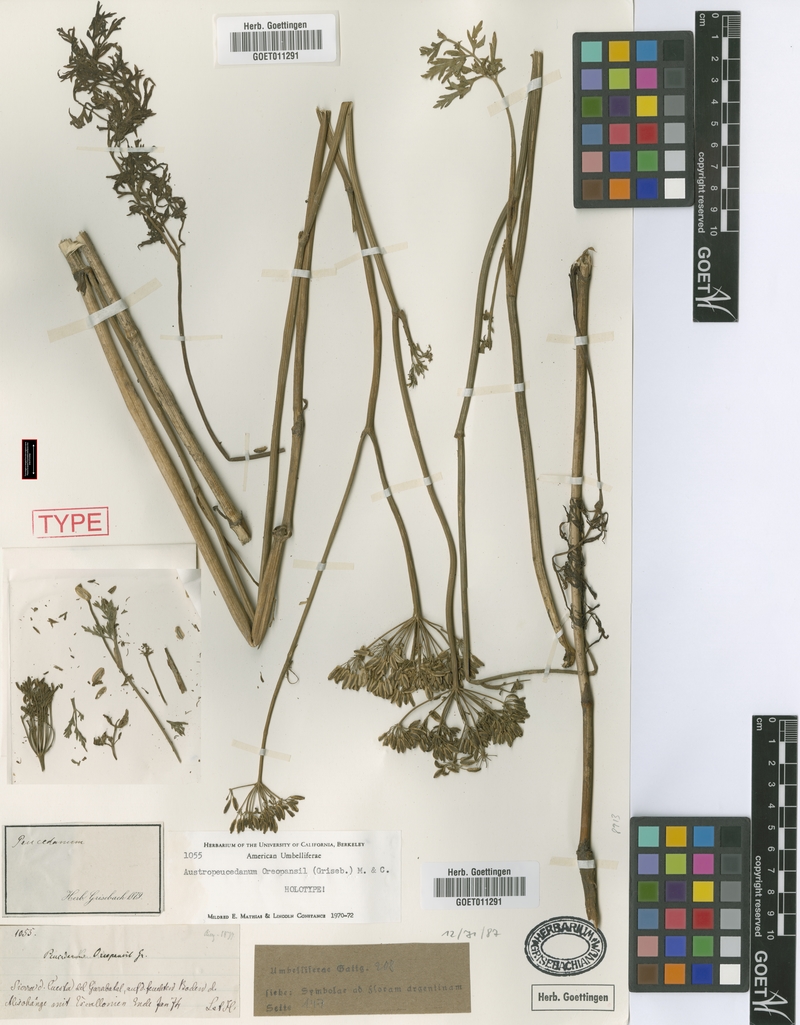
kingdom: Plantae
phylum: Tracheophyta
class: Magnoliopsida
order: Apiales
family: Apiaceae
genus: Austropeucedanum
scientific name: Austropeucedanum oreopansii
